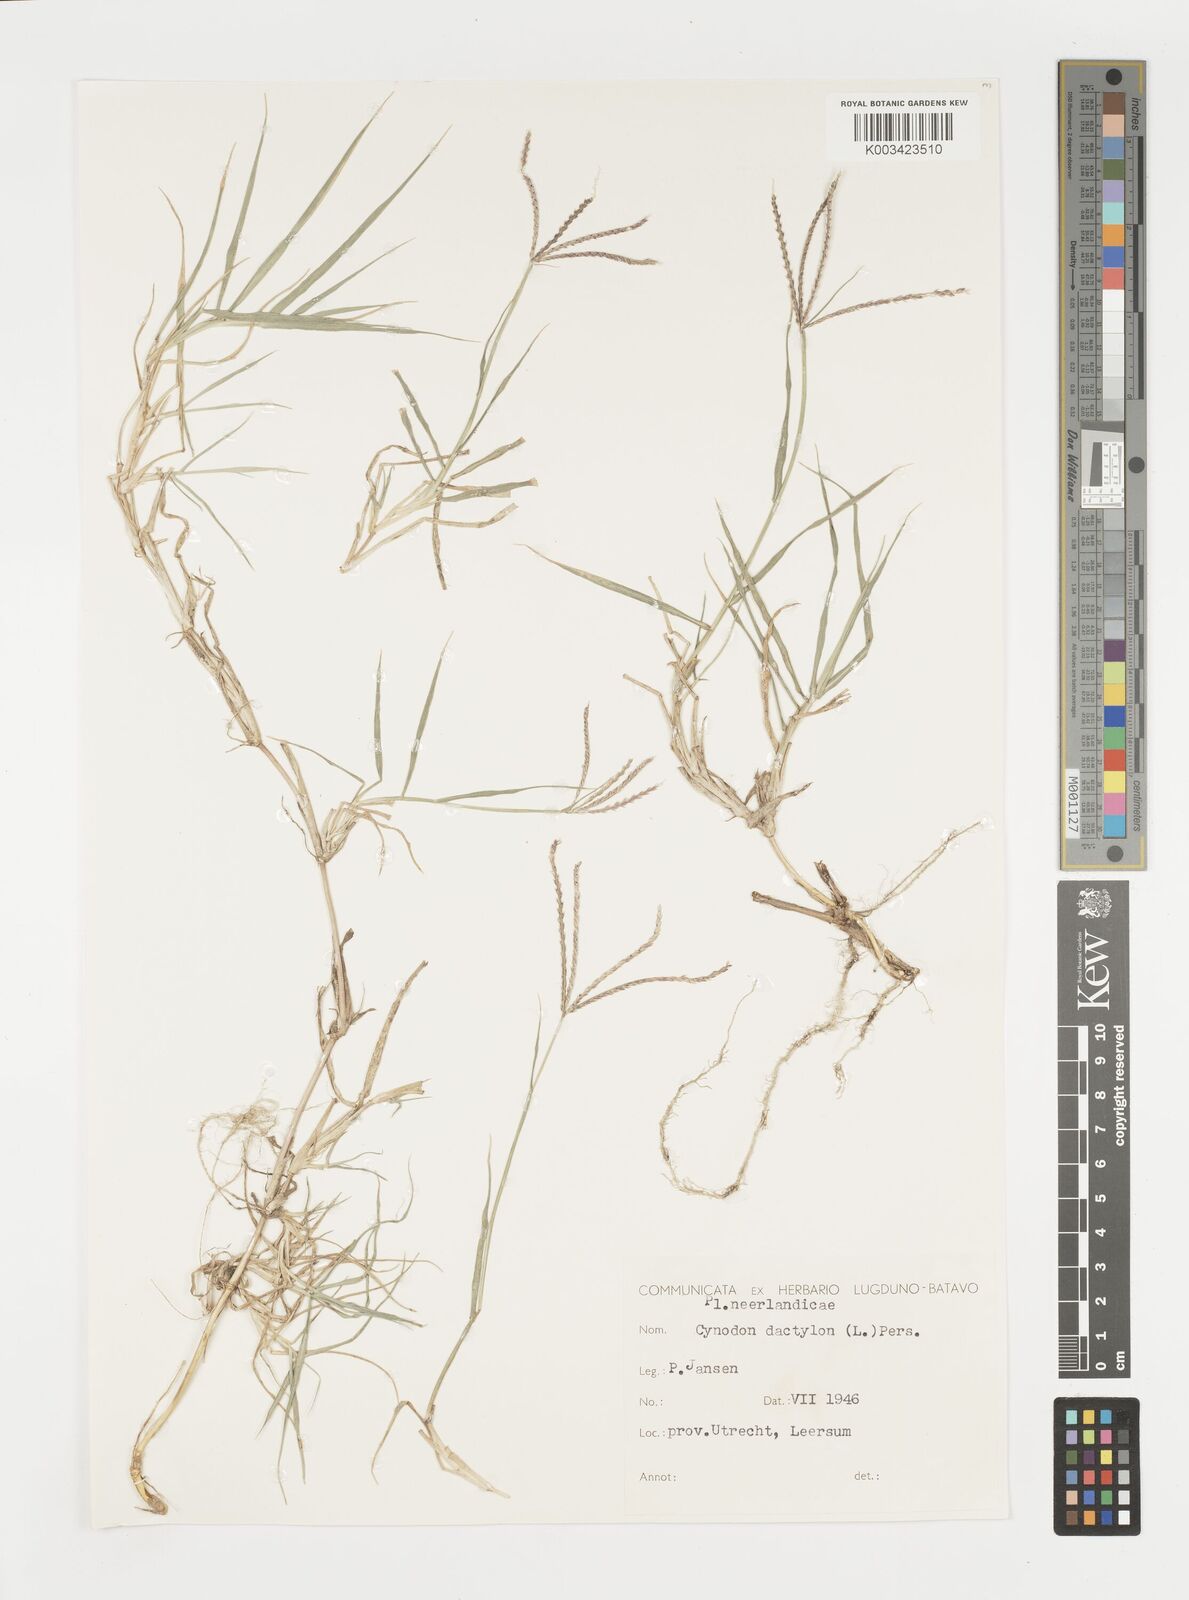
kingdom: Plantae
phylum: Tracheophyta
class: Liliopsida
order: Poales
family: Poaceae
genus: Cynodon
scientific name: Cynodon dactylon
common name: Bermuda grass
